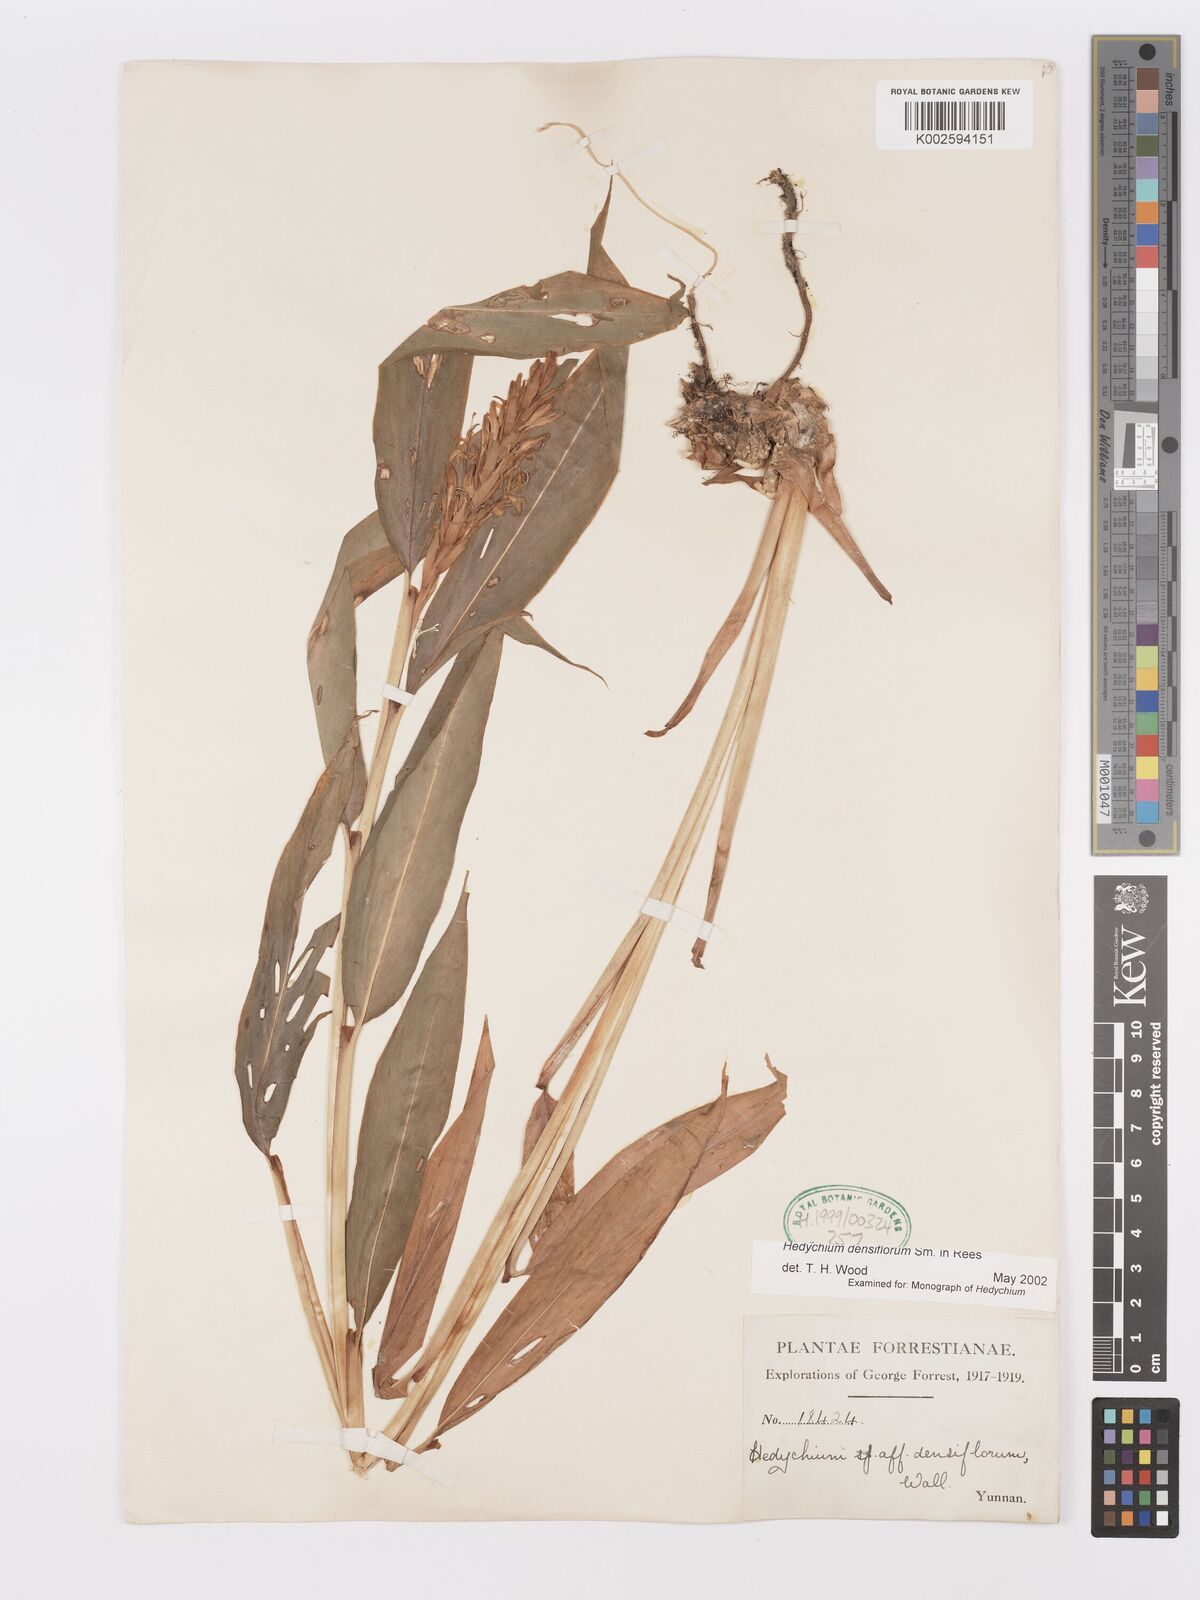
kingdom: Plantae
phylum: Tracheophyta
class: Liliopsida
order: Zingiberales
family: Zingiberaceae
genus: Hedychium
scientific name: Hedychium densiflorum
